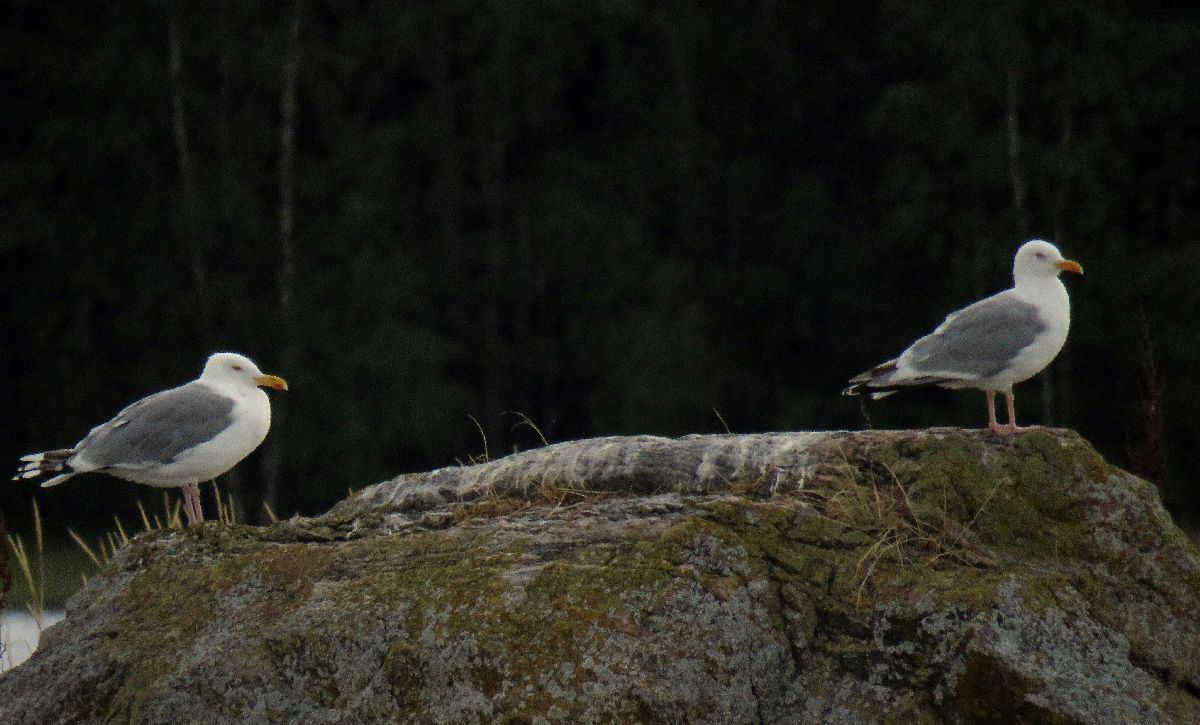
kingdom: Animalia
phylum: Chordata
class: Aves
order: Charadriiformes
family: Laridae
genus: Larus
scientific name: Larus argentatus
